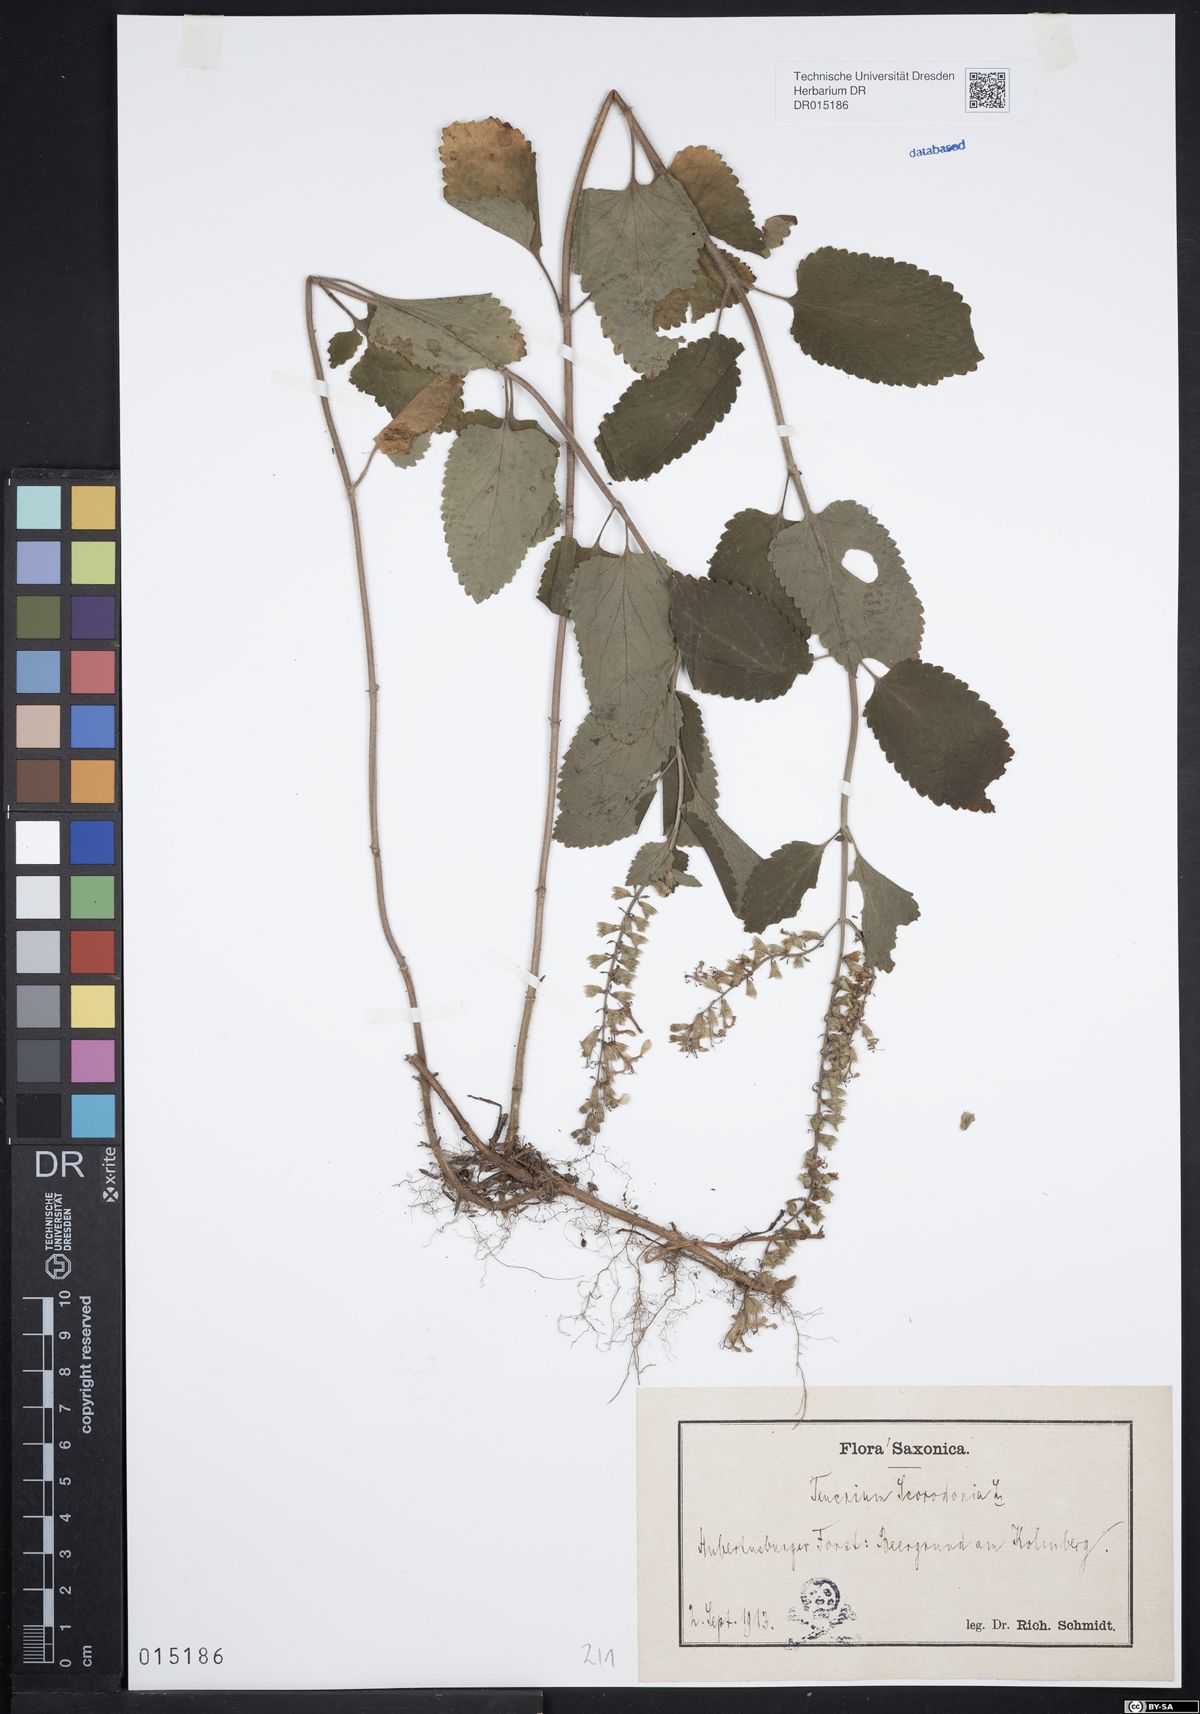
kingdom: Plantae
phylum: Tracheophyta
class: Magnoliopsida
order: Lamiales
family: Lamiaceae
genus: Teucrium
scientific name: Teucrium scorodonia
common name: Woodland germander
